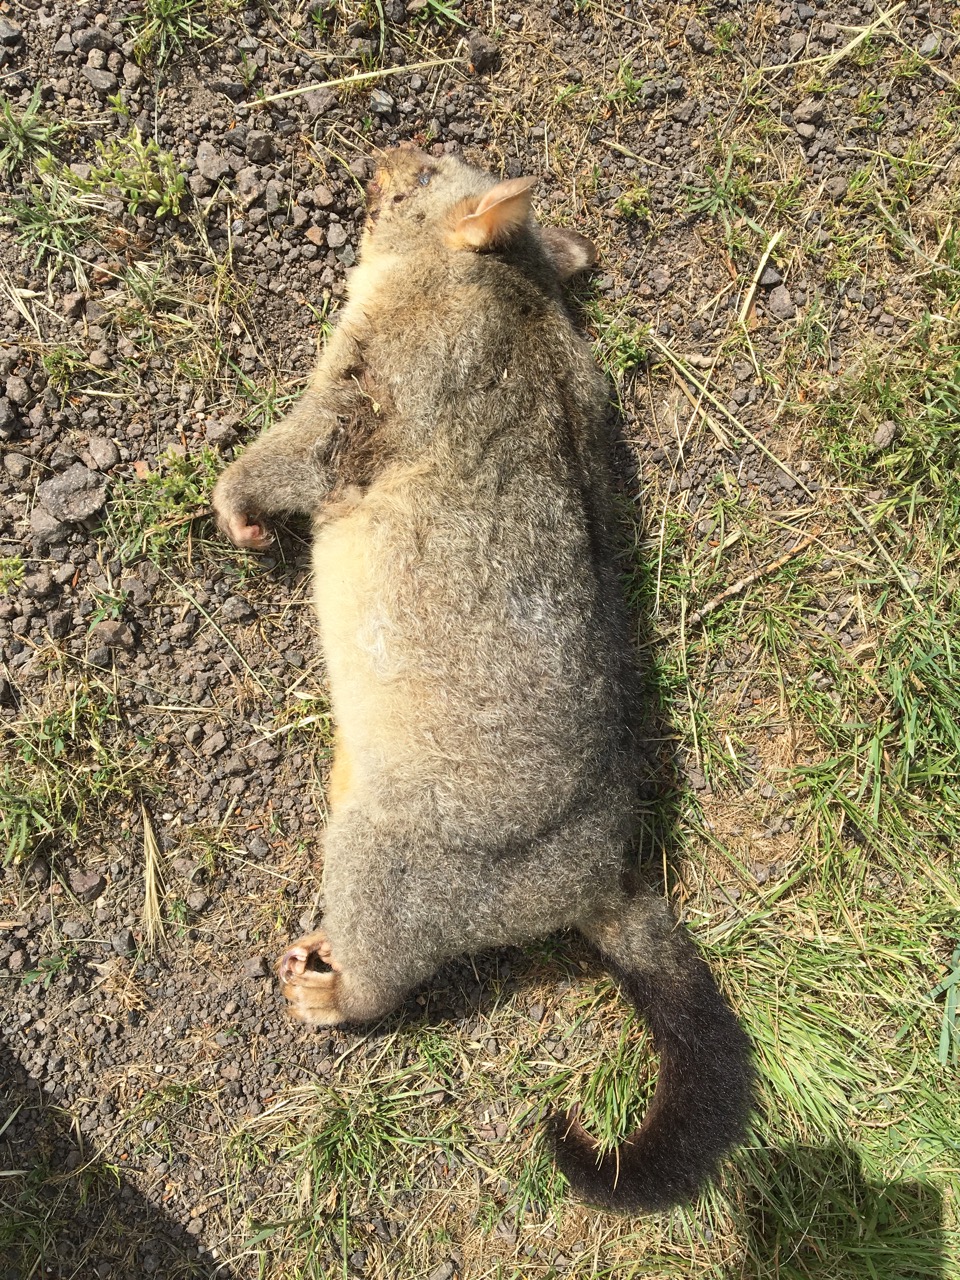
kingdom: Animalia
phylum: Chordata
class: Mammalia
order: Diprotodontia
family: Phalangeridae
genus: Trichosurus
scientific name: Trichosurus vulpecula
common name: Common brushtail
